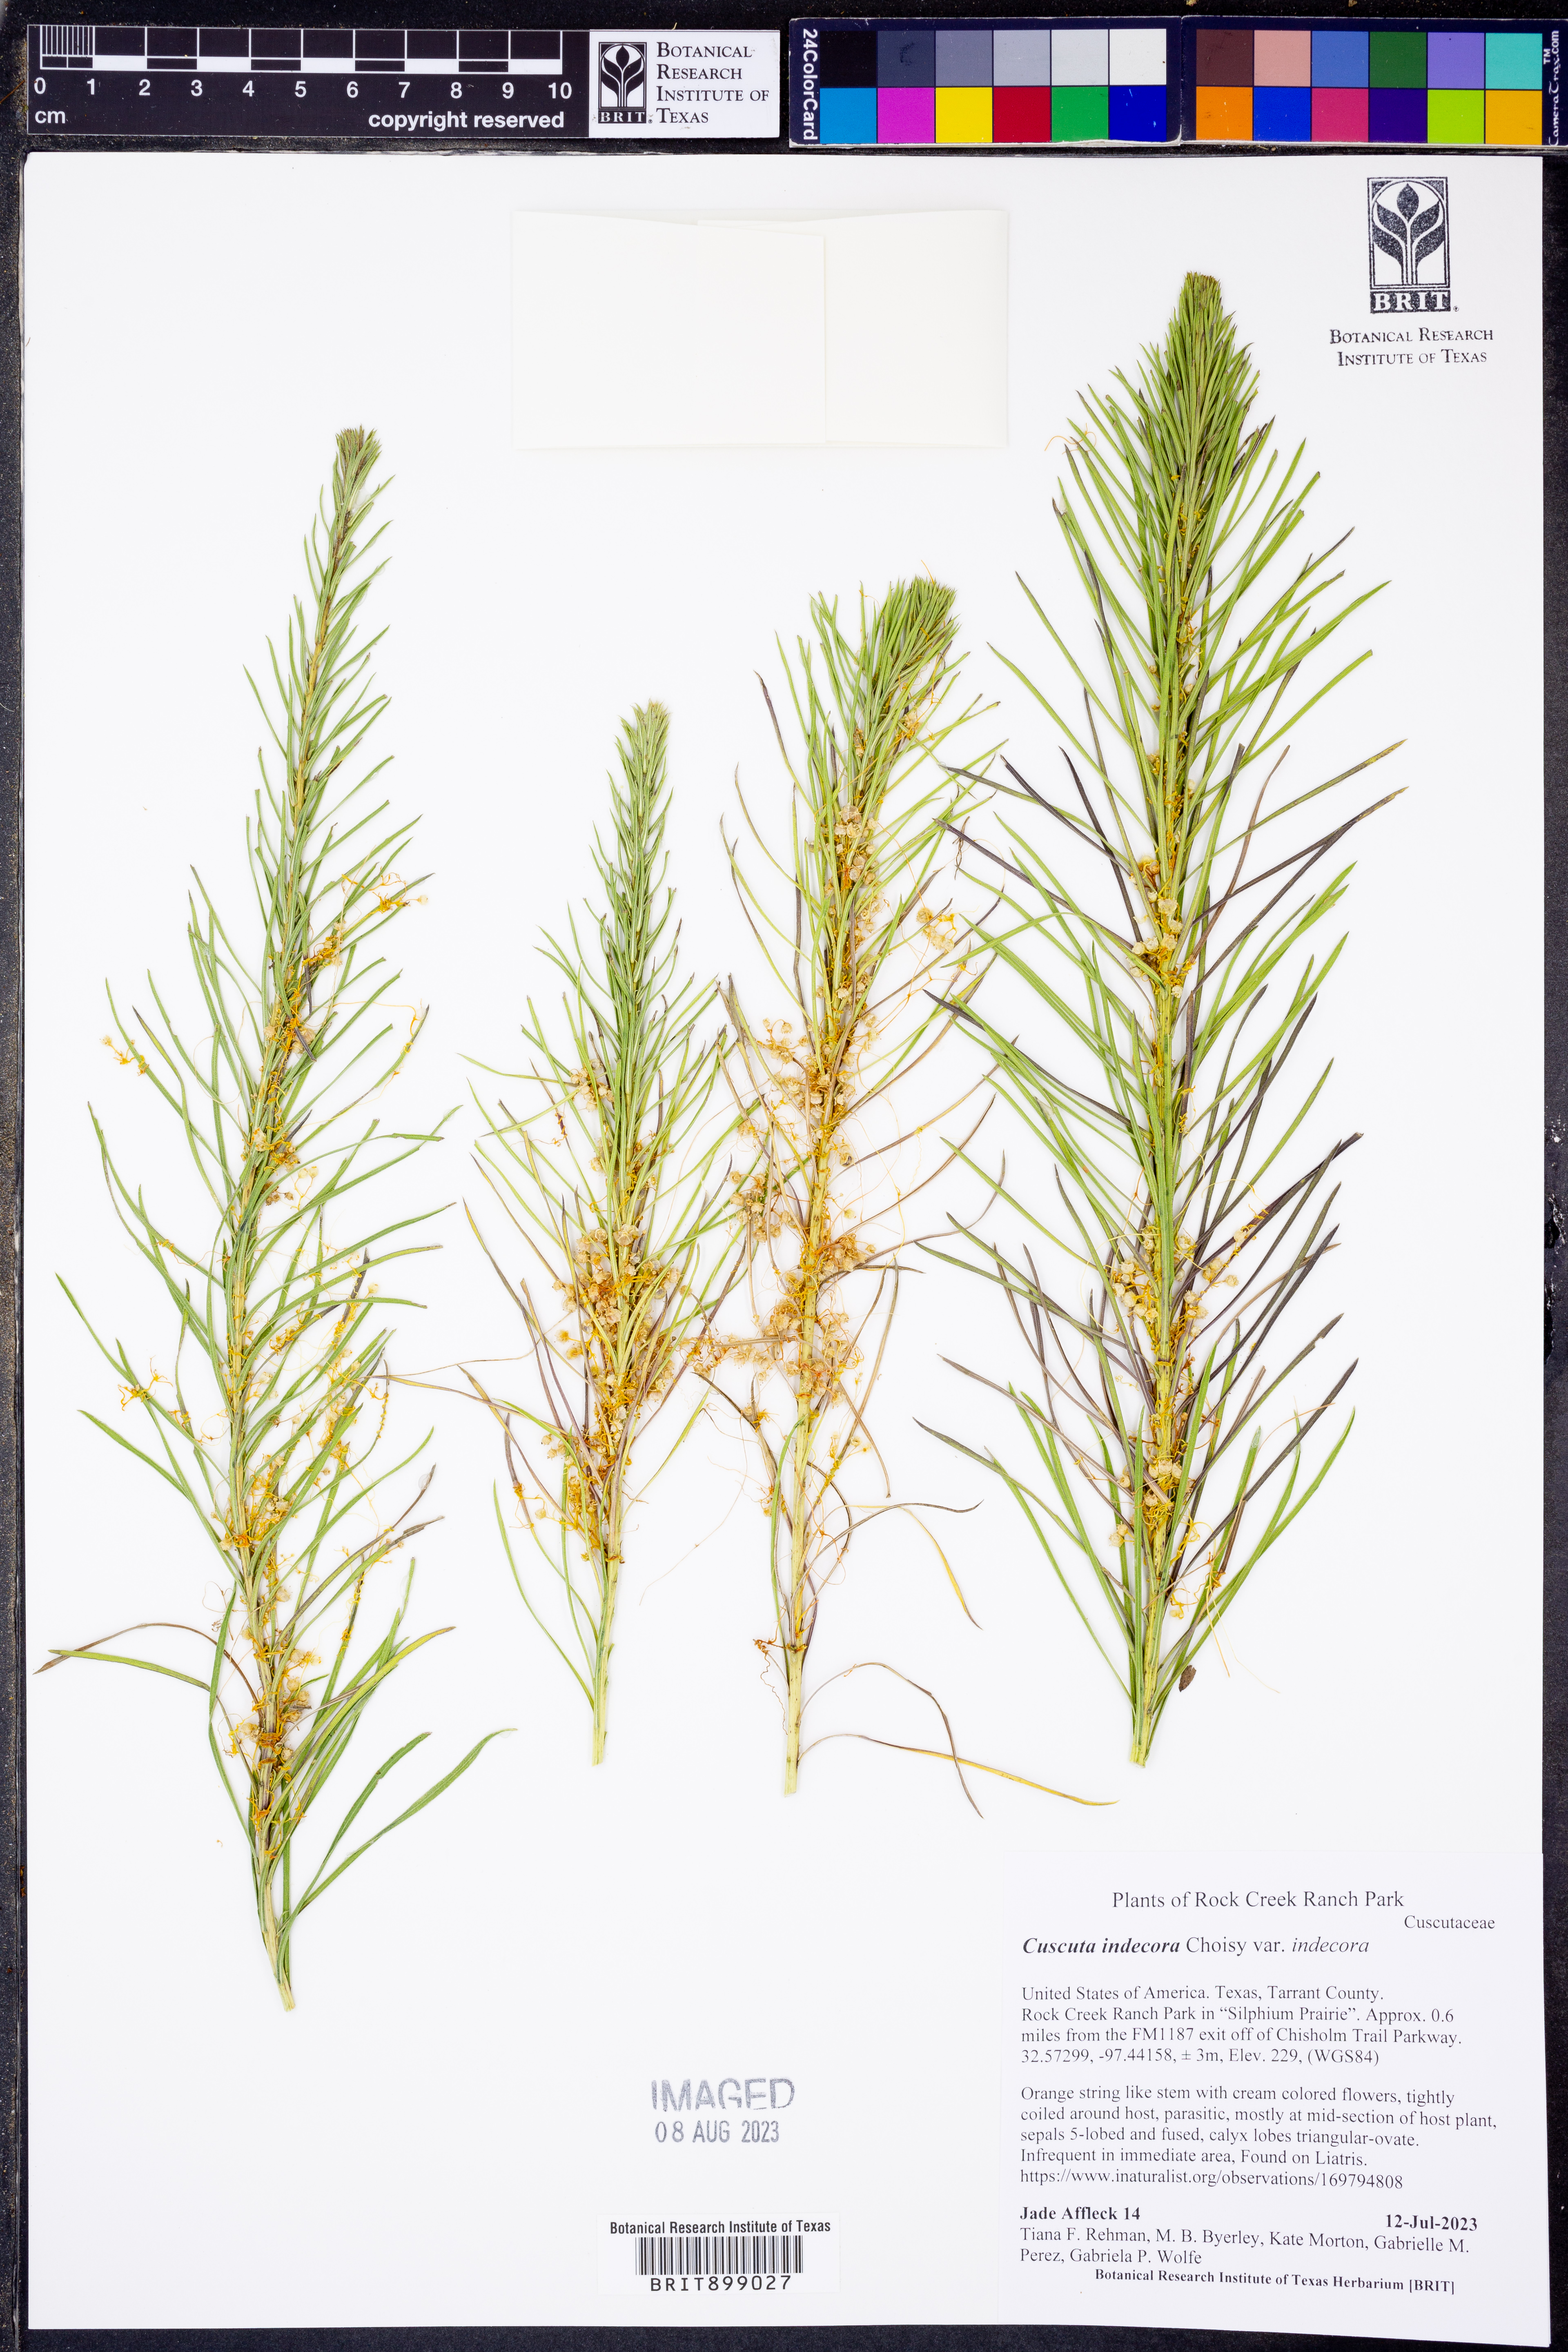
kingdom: Plantae
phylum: Tracheophyta
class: Magnoliopsida
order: Solanales
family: Convolvulaceae
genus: Cuscuta
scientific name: Cuscuta indecora
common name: Large-seed dodder
